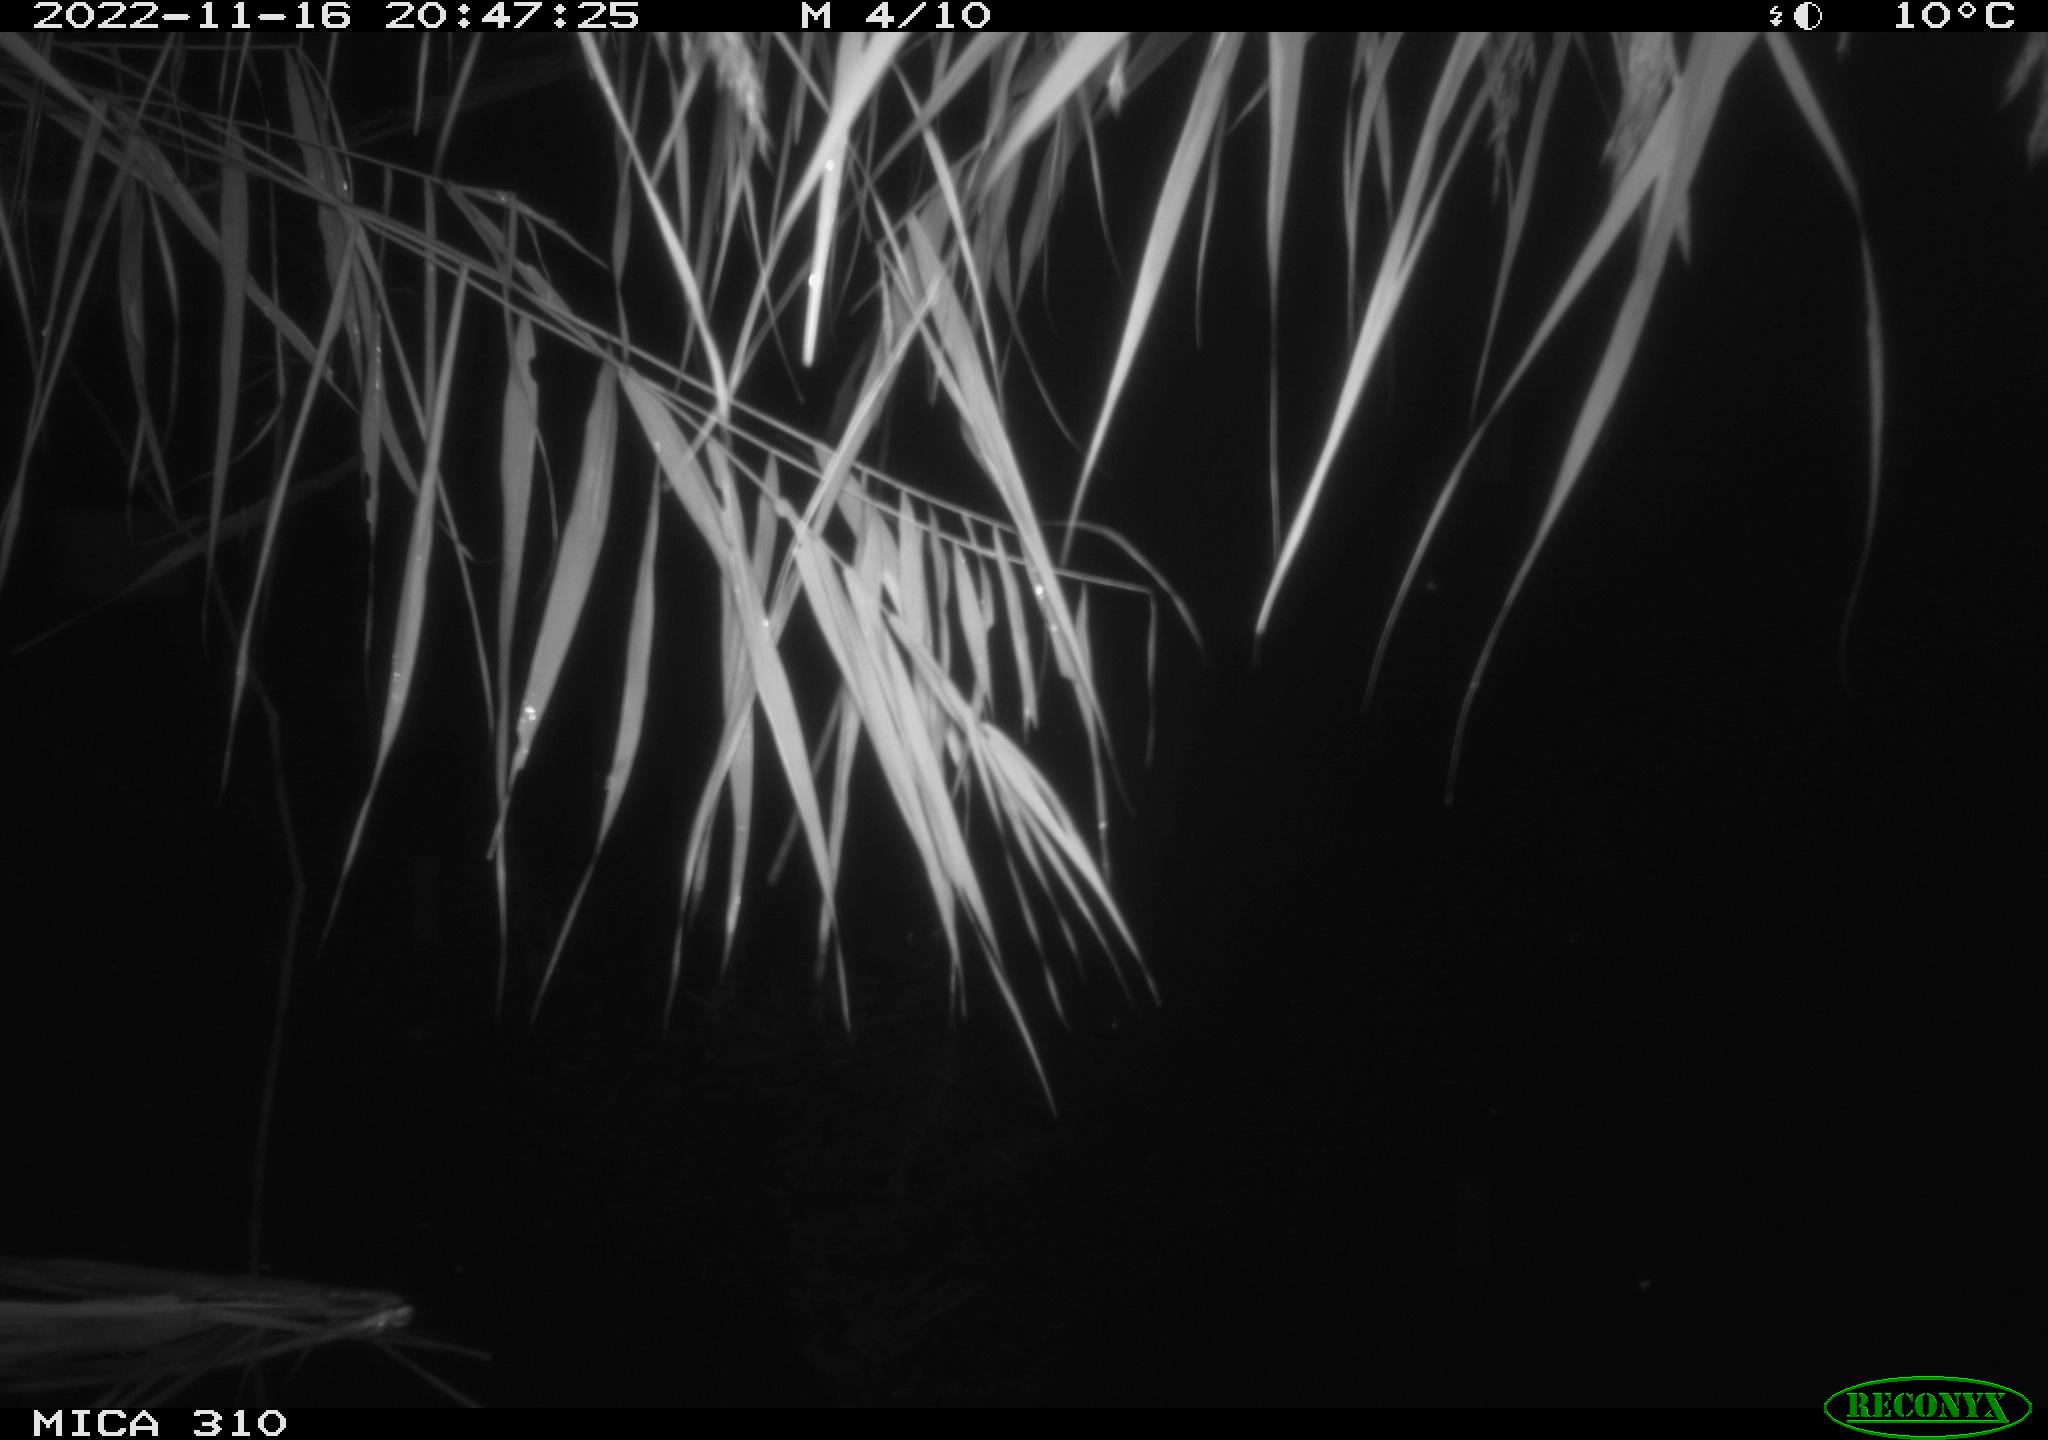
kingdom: Animalia
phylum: Chordata
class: Mammalia
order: Rodentia
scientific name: Rodentia
